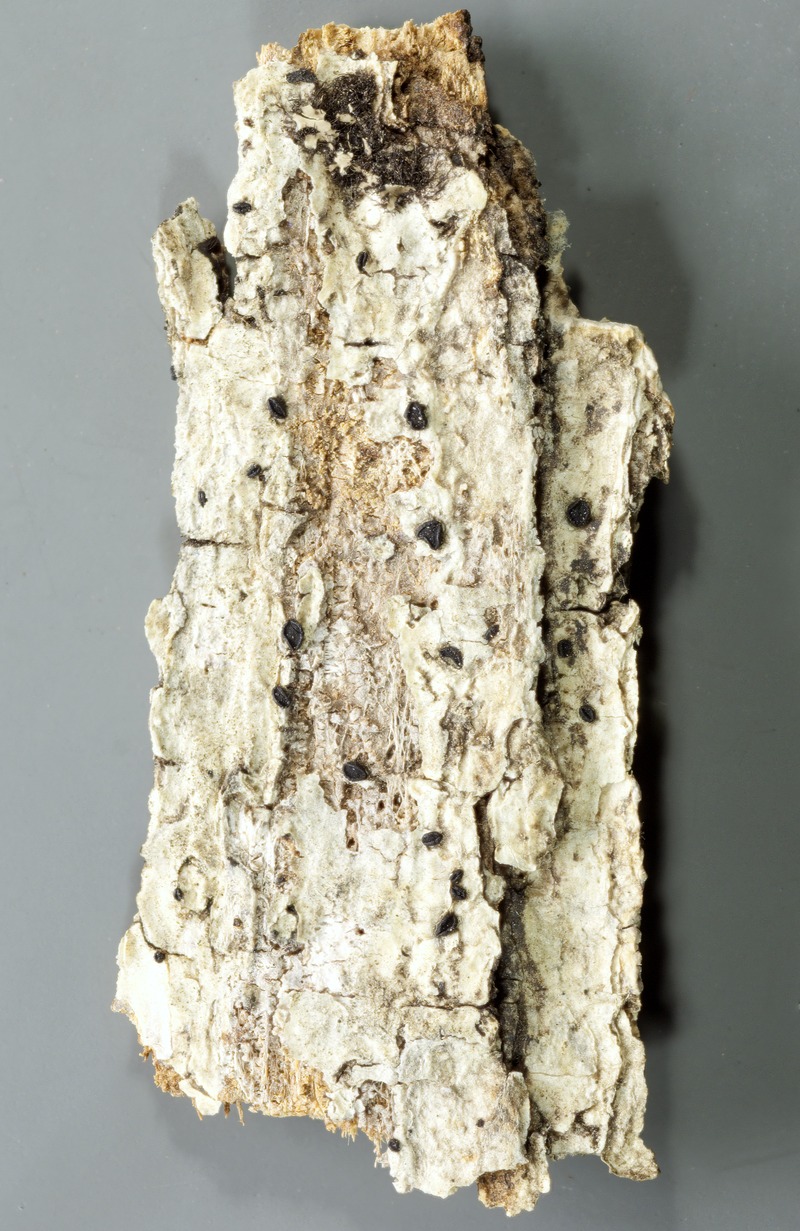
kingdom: Fungi
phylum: Ascomycota
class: Dothideomycetes
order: Patellariales
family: Patellariaceae
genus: Tryblidaria
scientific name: Tryblidaria dealbata
